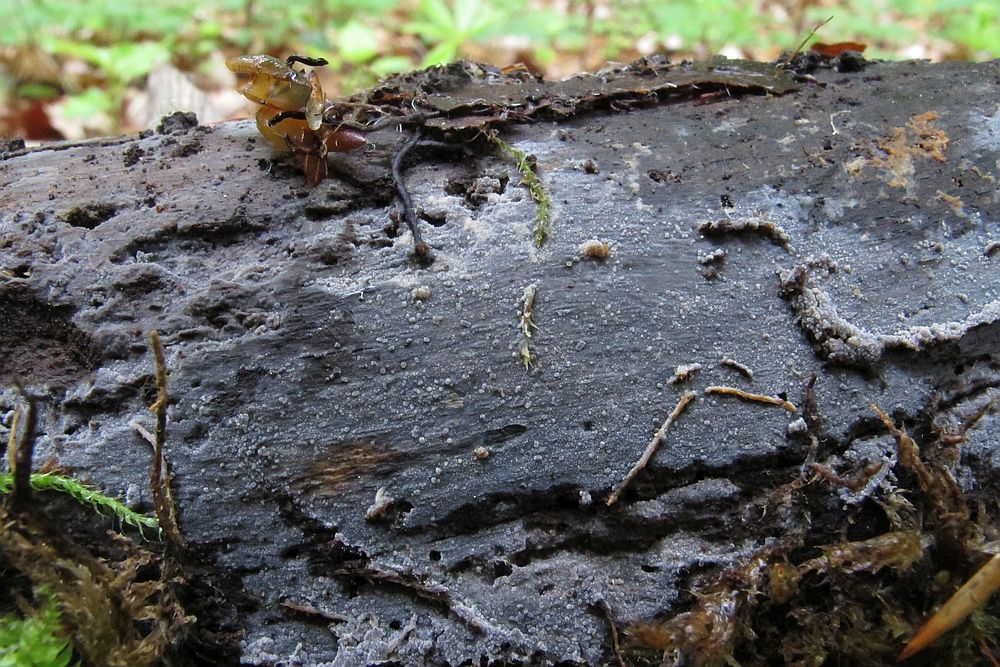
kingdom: Fungi
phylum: Basidiomycota
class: Agaricomycetes
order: Polyporales
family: Meruliaceae
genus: Scopuloides
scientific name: Scopuloides rimosa
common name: dughinde
